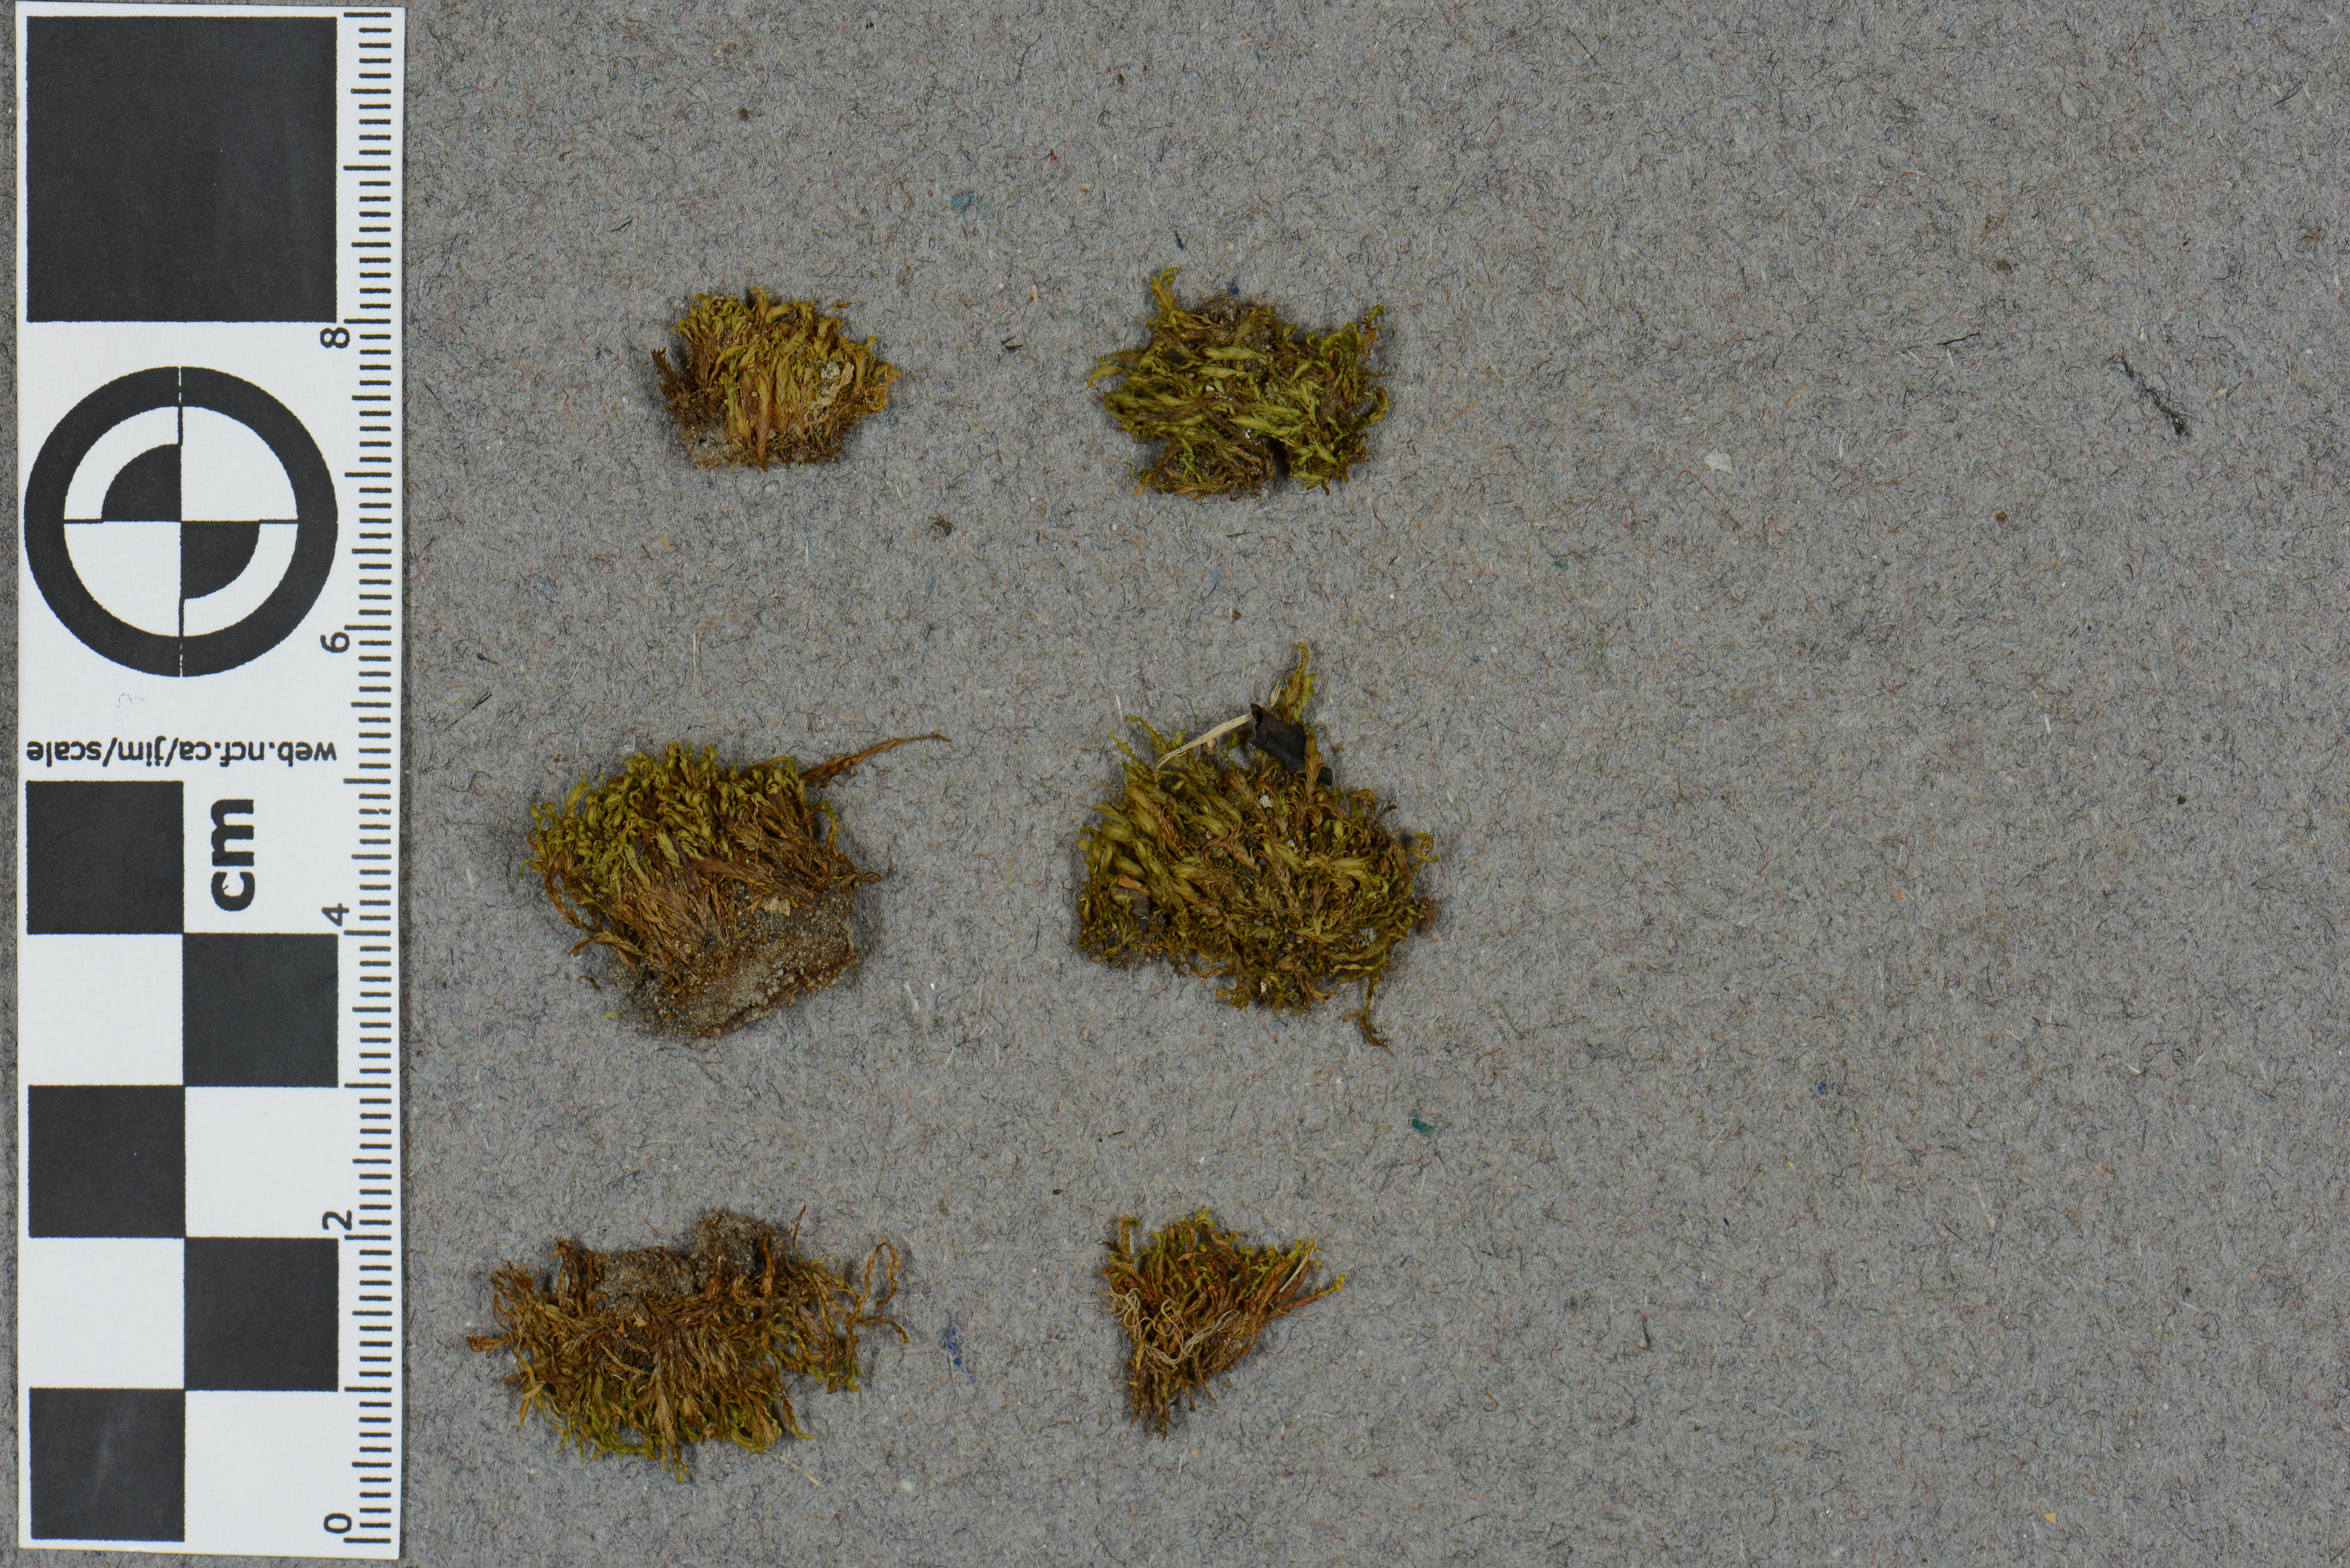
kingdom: Plantae
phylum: Bryophyta
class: Bryopsida
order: Dicranales
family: Fissidentaceae
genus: Fissidens
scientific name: Fissidens asplenioides
